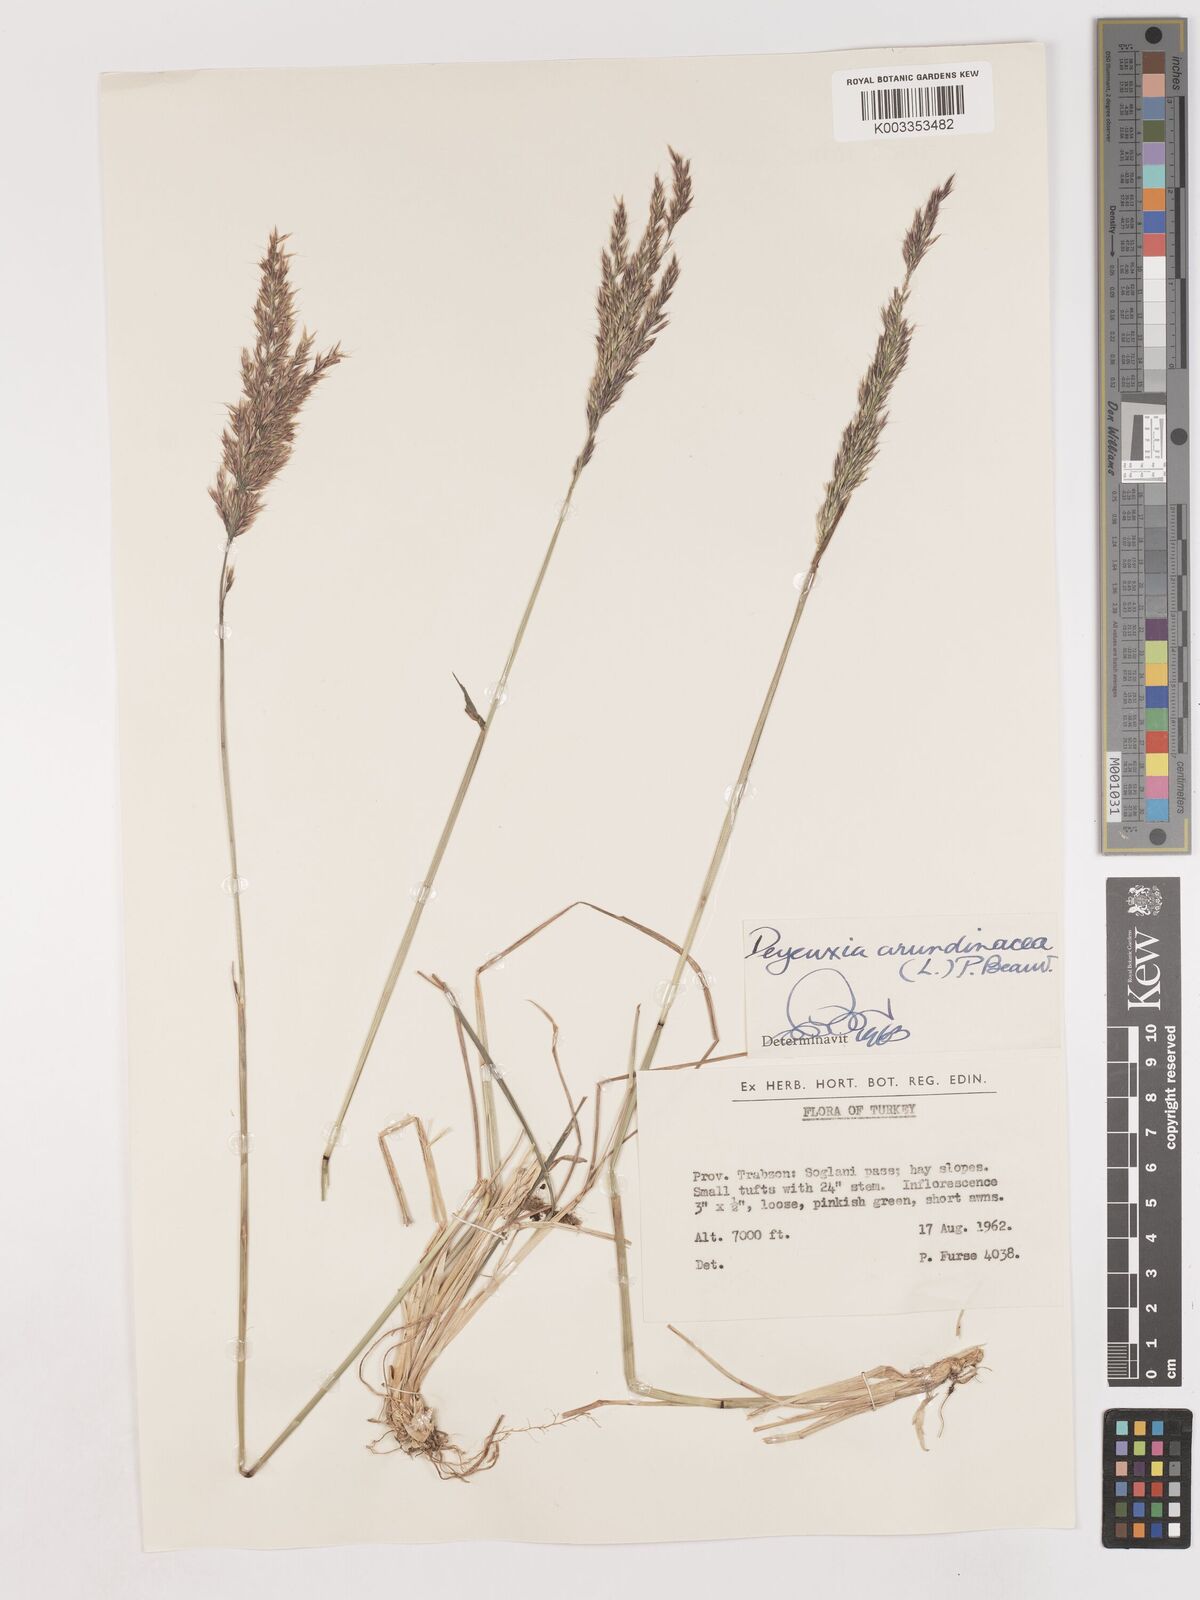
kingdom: Plantae
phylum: Tracheophyta
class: Liliopsida
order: Poales
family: Poaceae
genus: Calamagrostis
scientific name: Calamagrostis
